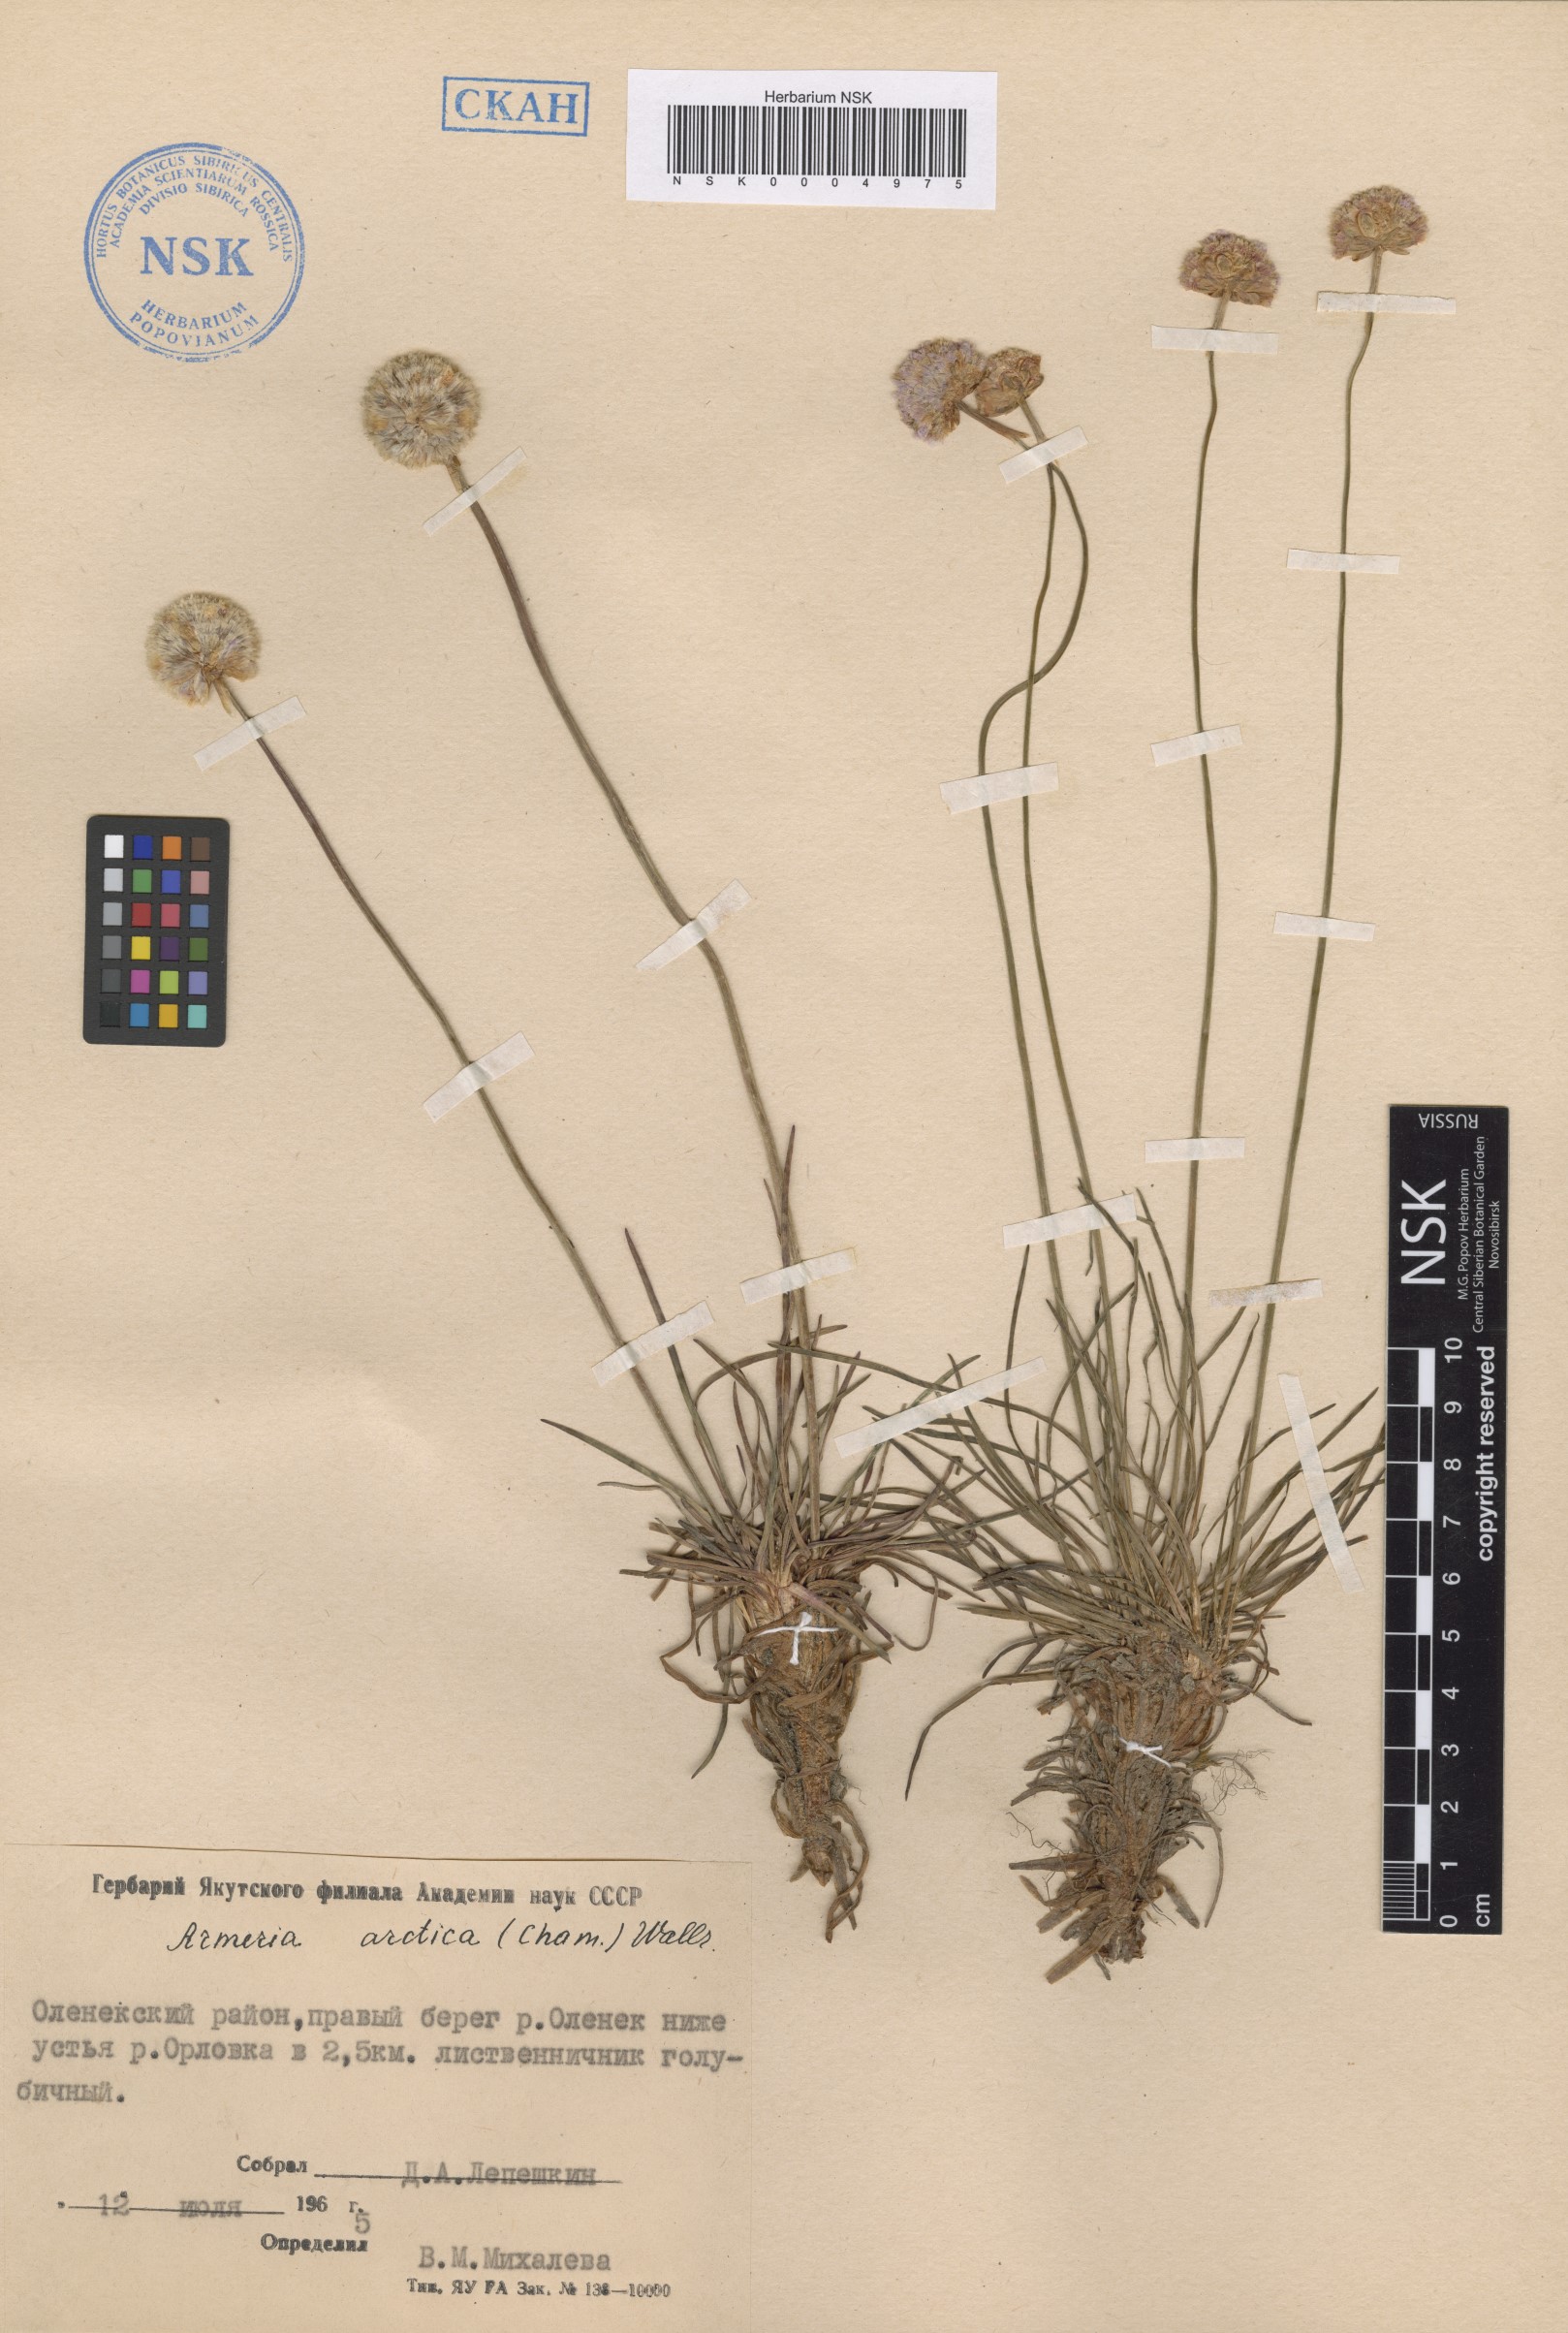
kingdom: Plantae
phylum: Tracheophyta
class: Magnoliopsida
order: Caryophyllales
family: Plumbaginaceae
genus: Armeria
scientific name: Armeria maritima
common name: Thrift
